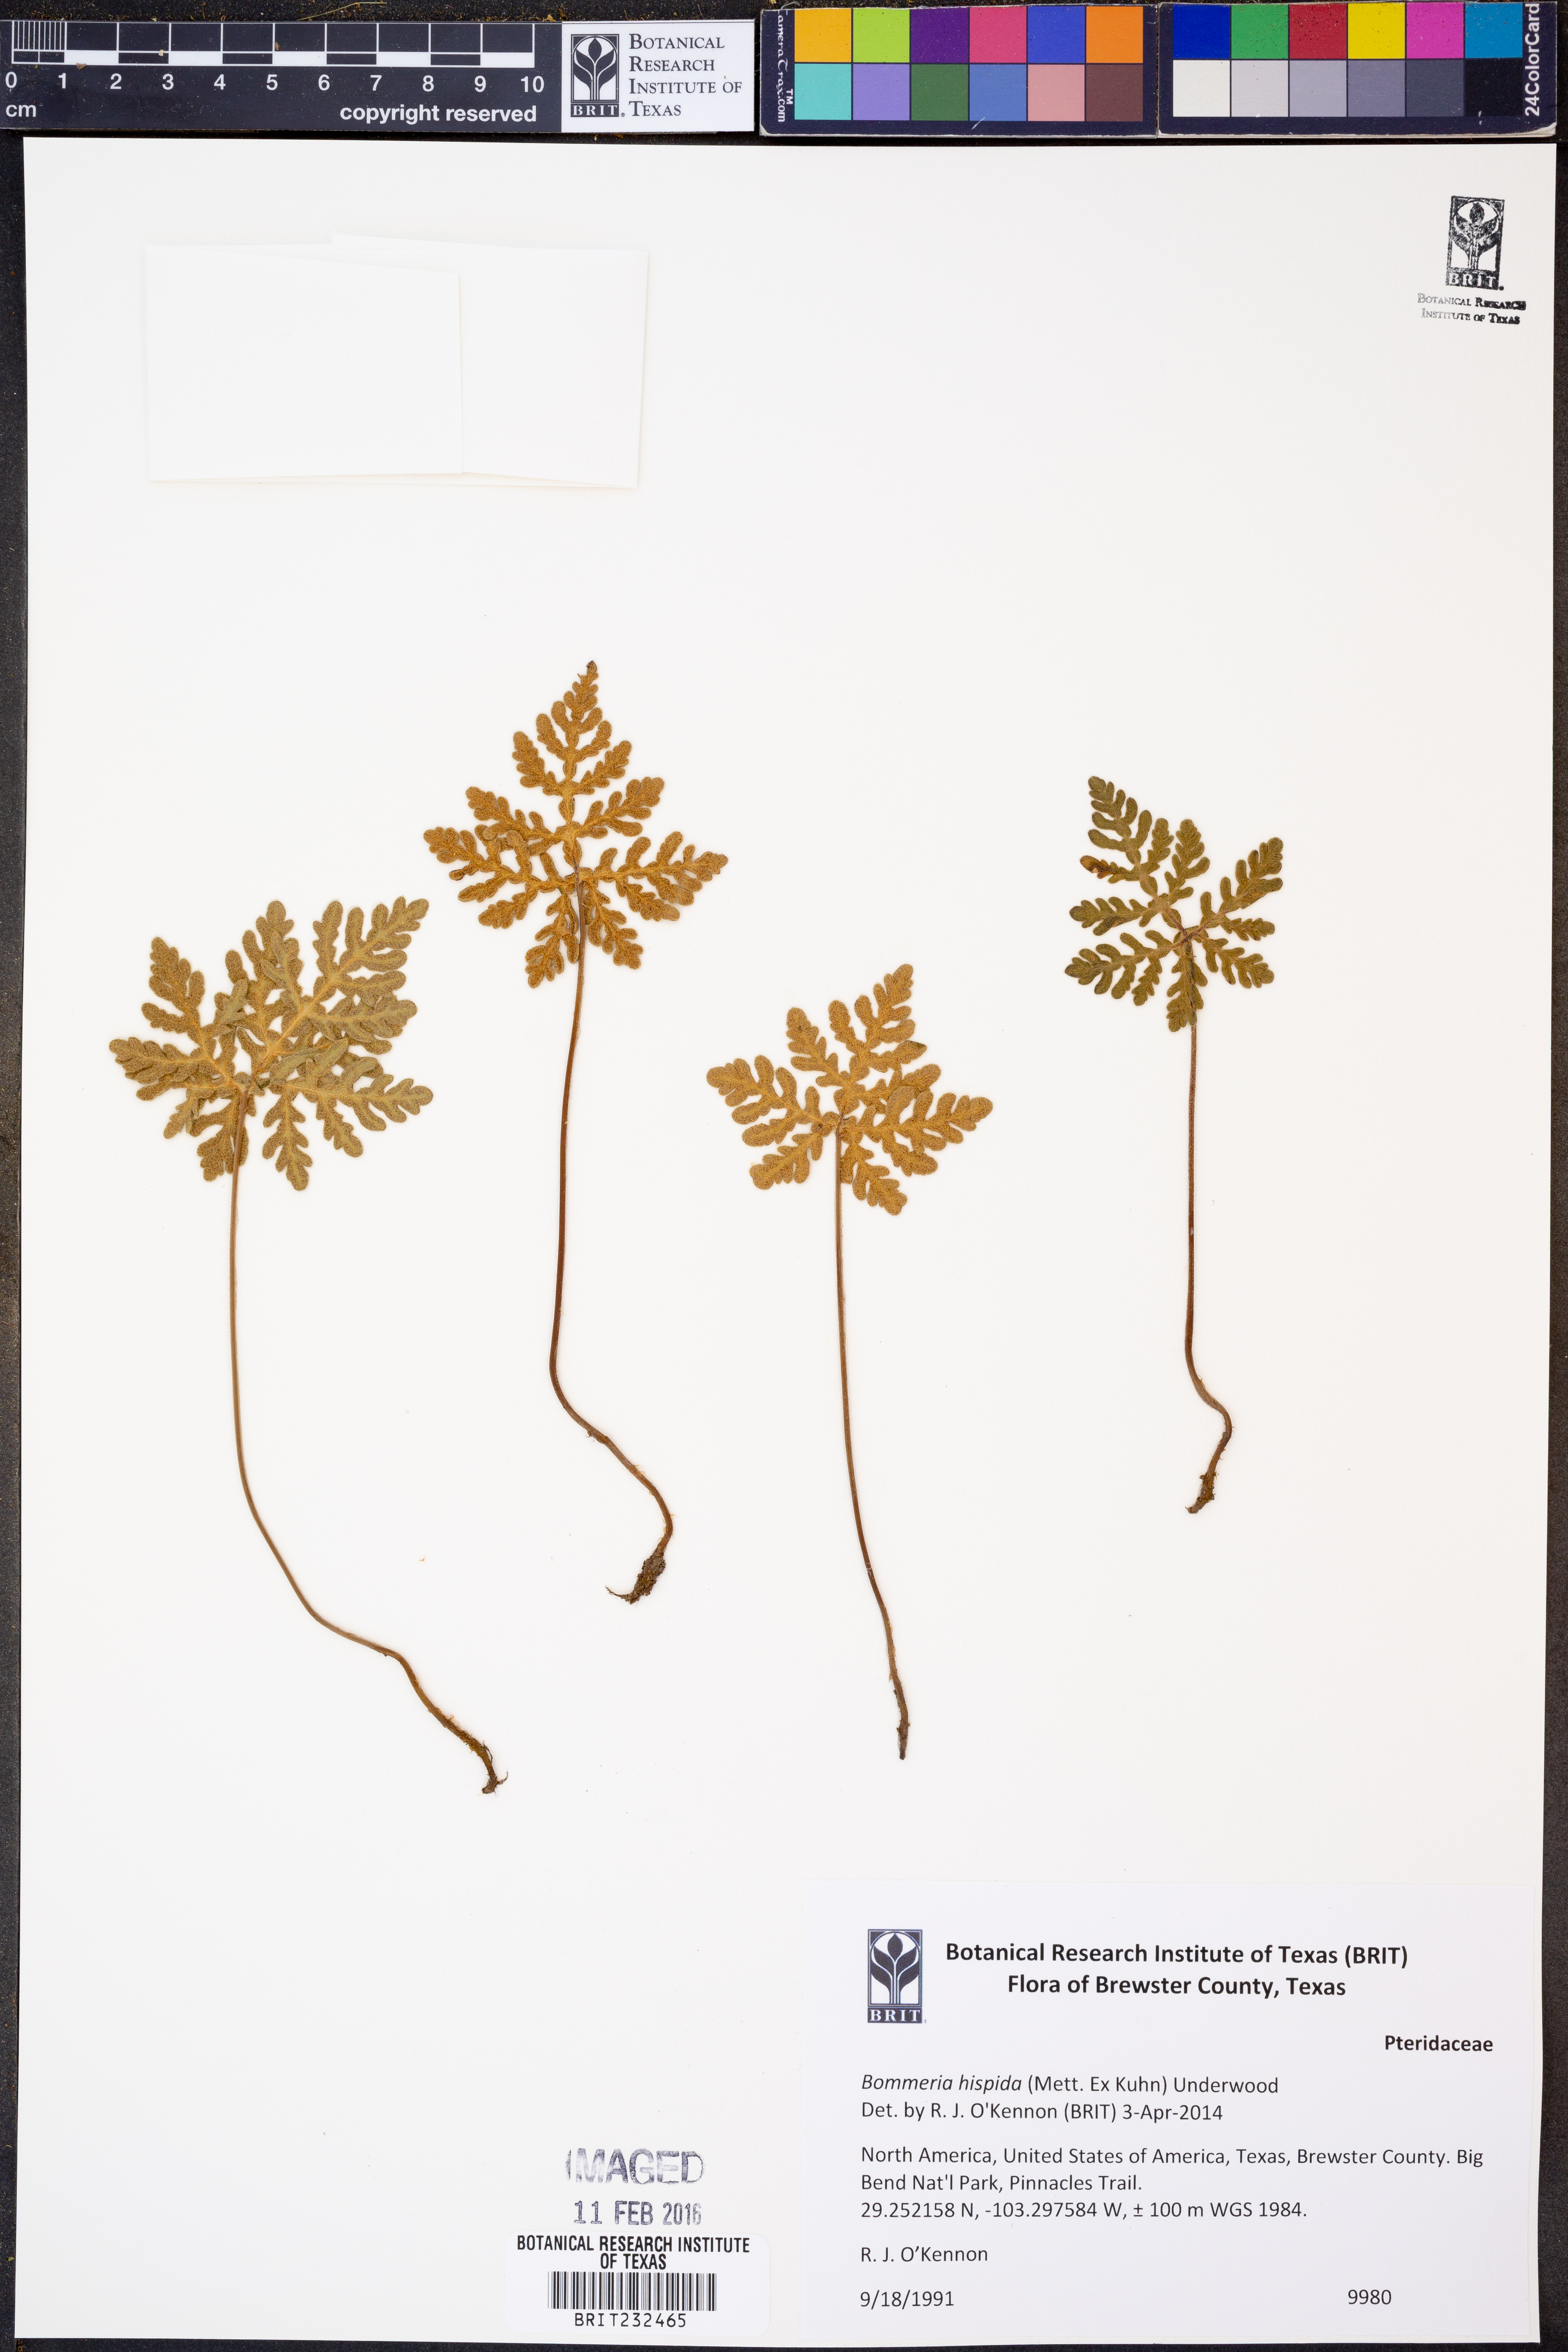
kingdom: Plantae
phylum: Tracheophyta
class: Polypodiopsida
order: Polypodiales
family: Pteridaceae
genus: Bommeria
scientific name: Bommeria hispida
